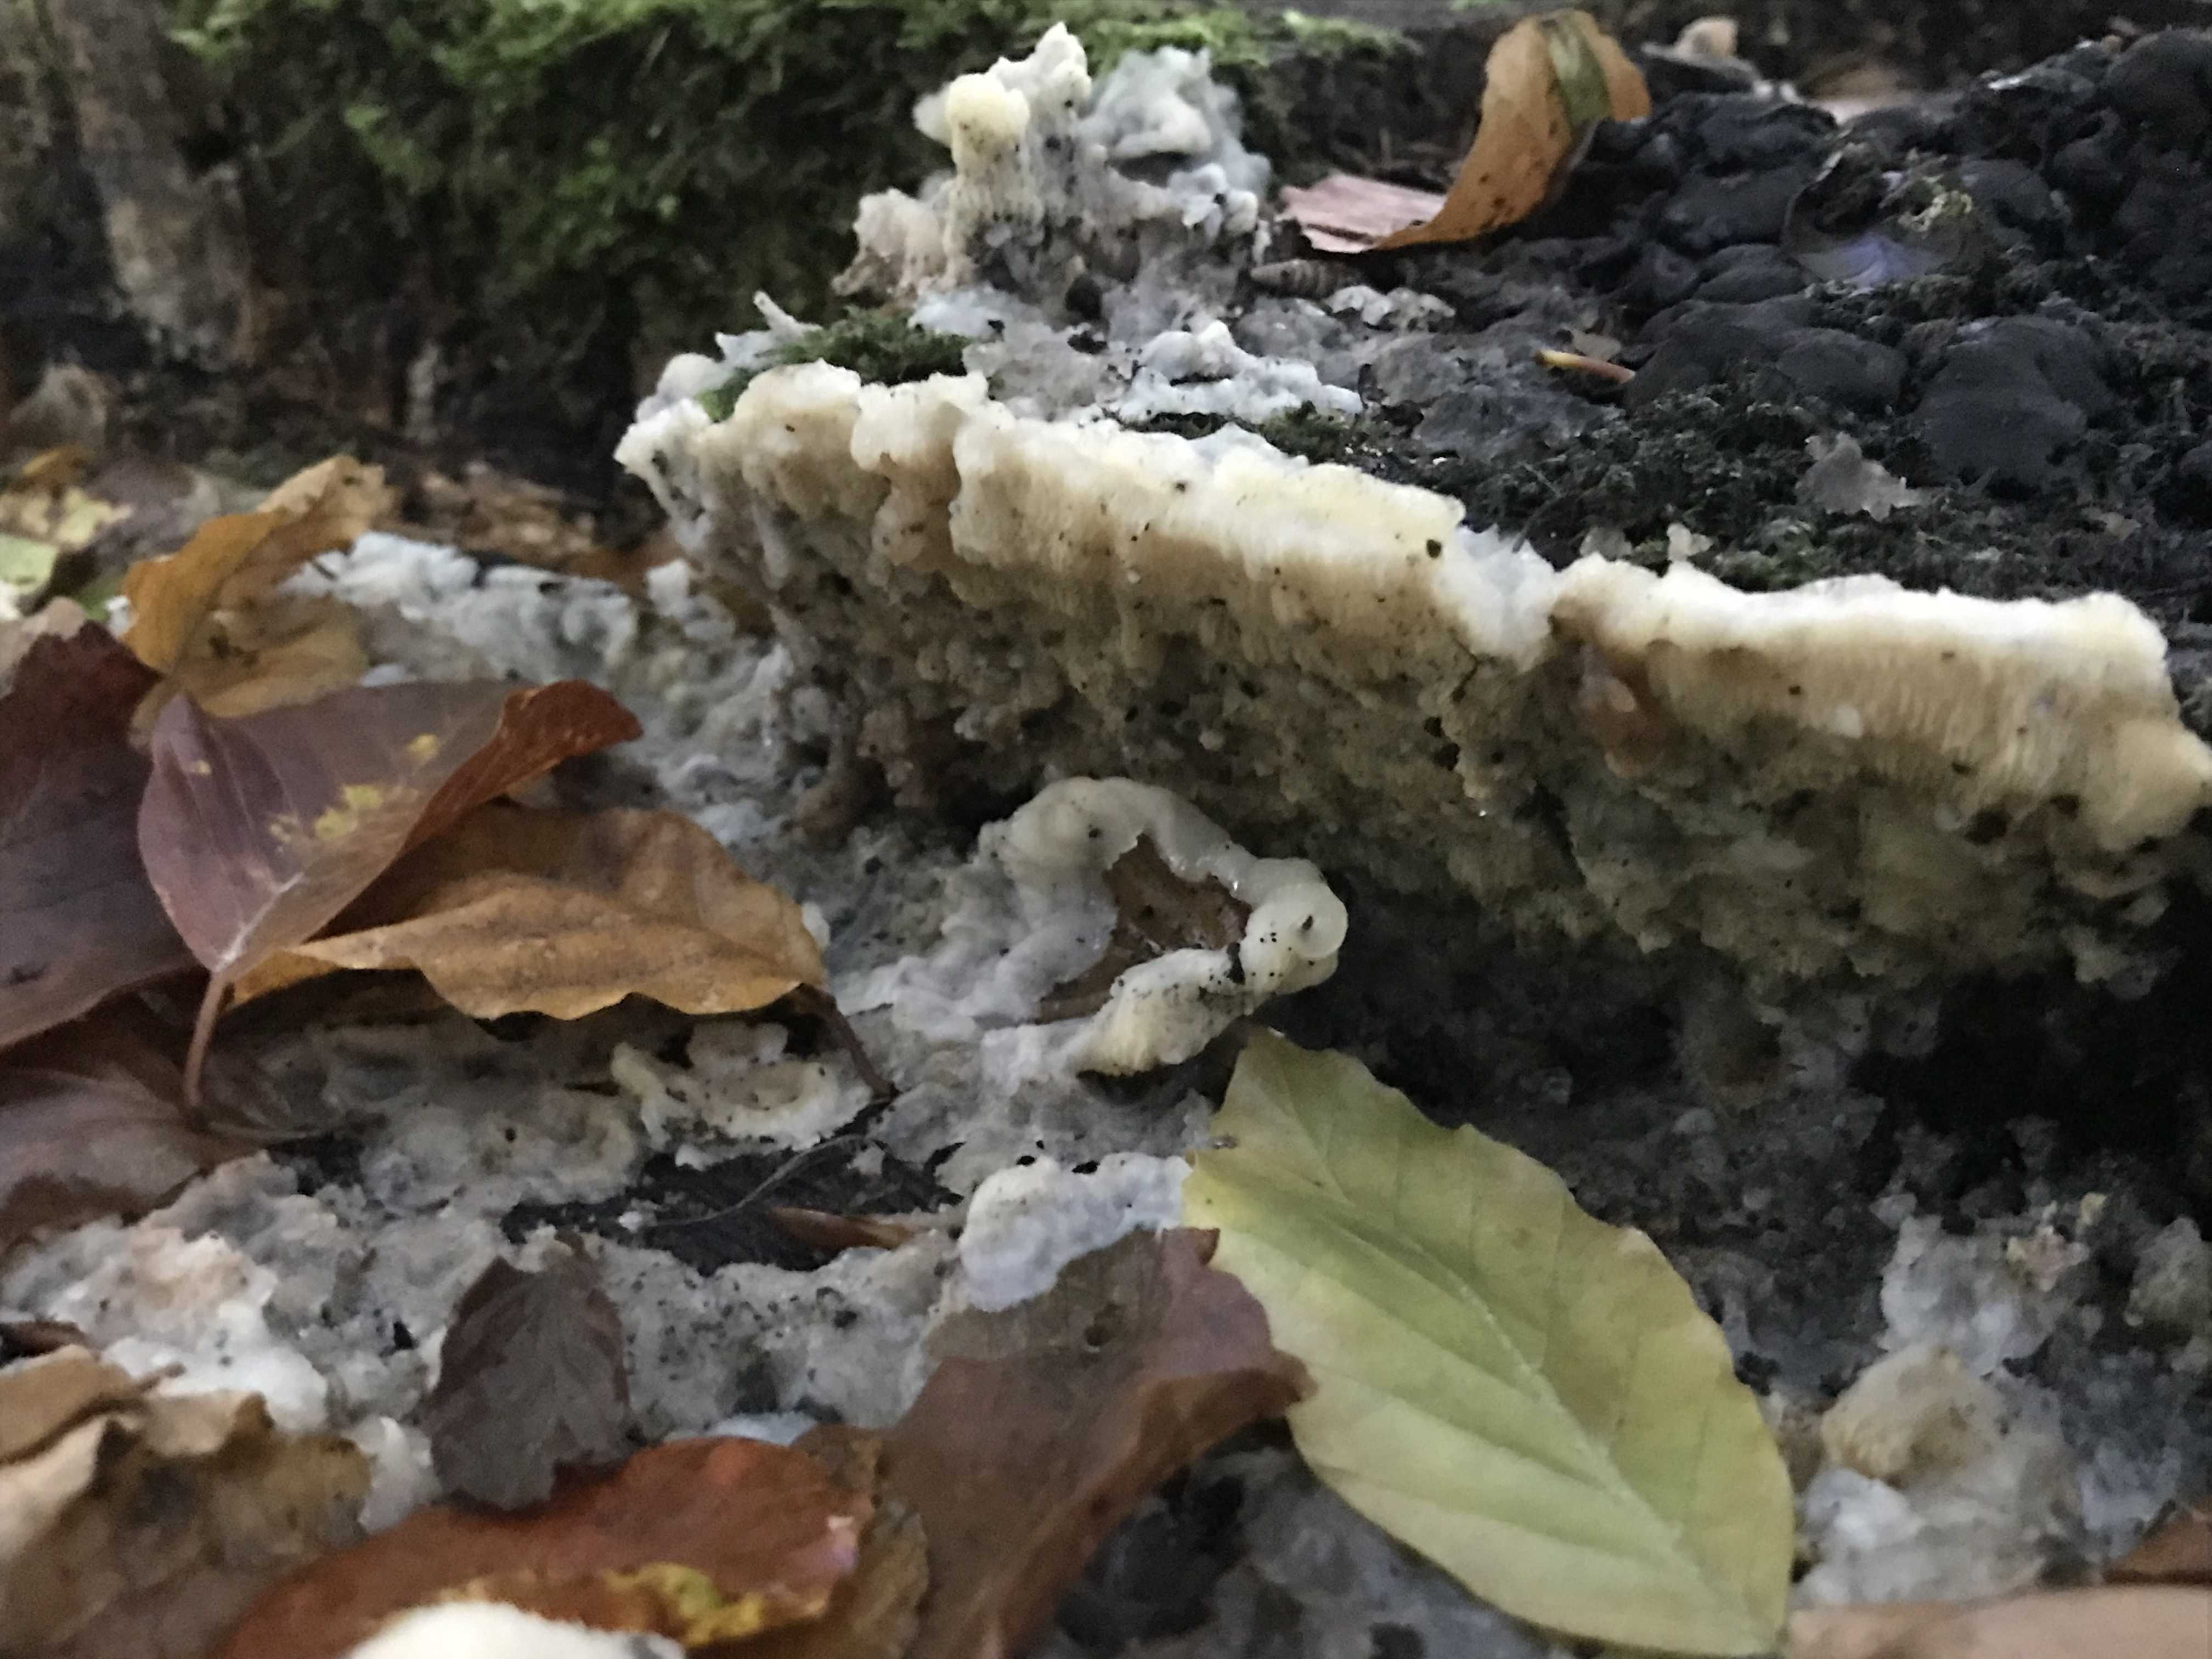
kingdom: Fungi
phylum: Basidiomycota
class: Agaricomycetes
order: Polyporales
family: Meruliaceae
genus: Phlebia
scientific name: Phlebia tremellosa
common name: bævrende åresvamp
